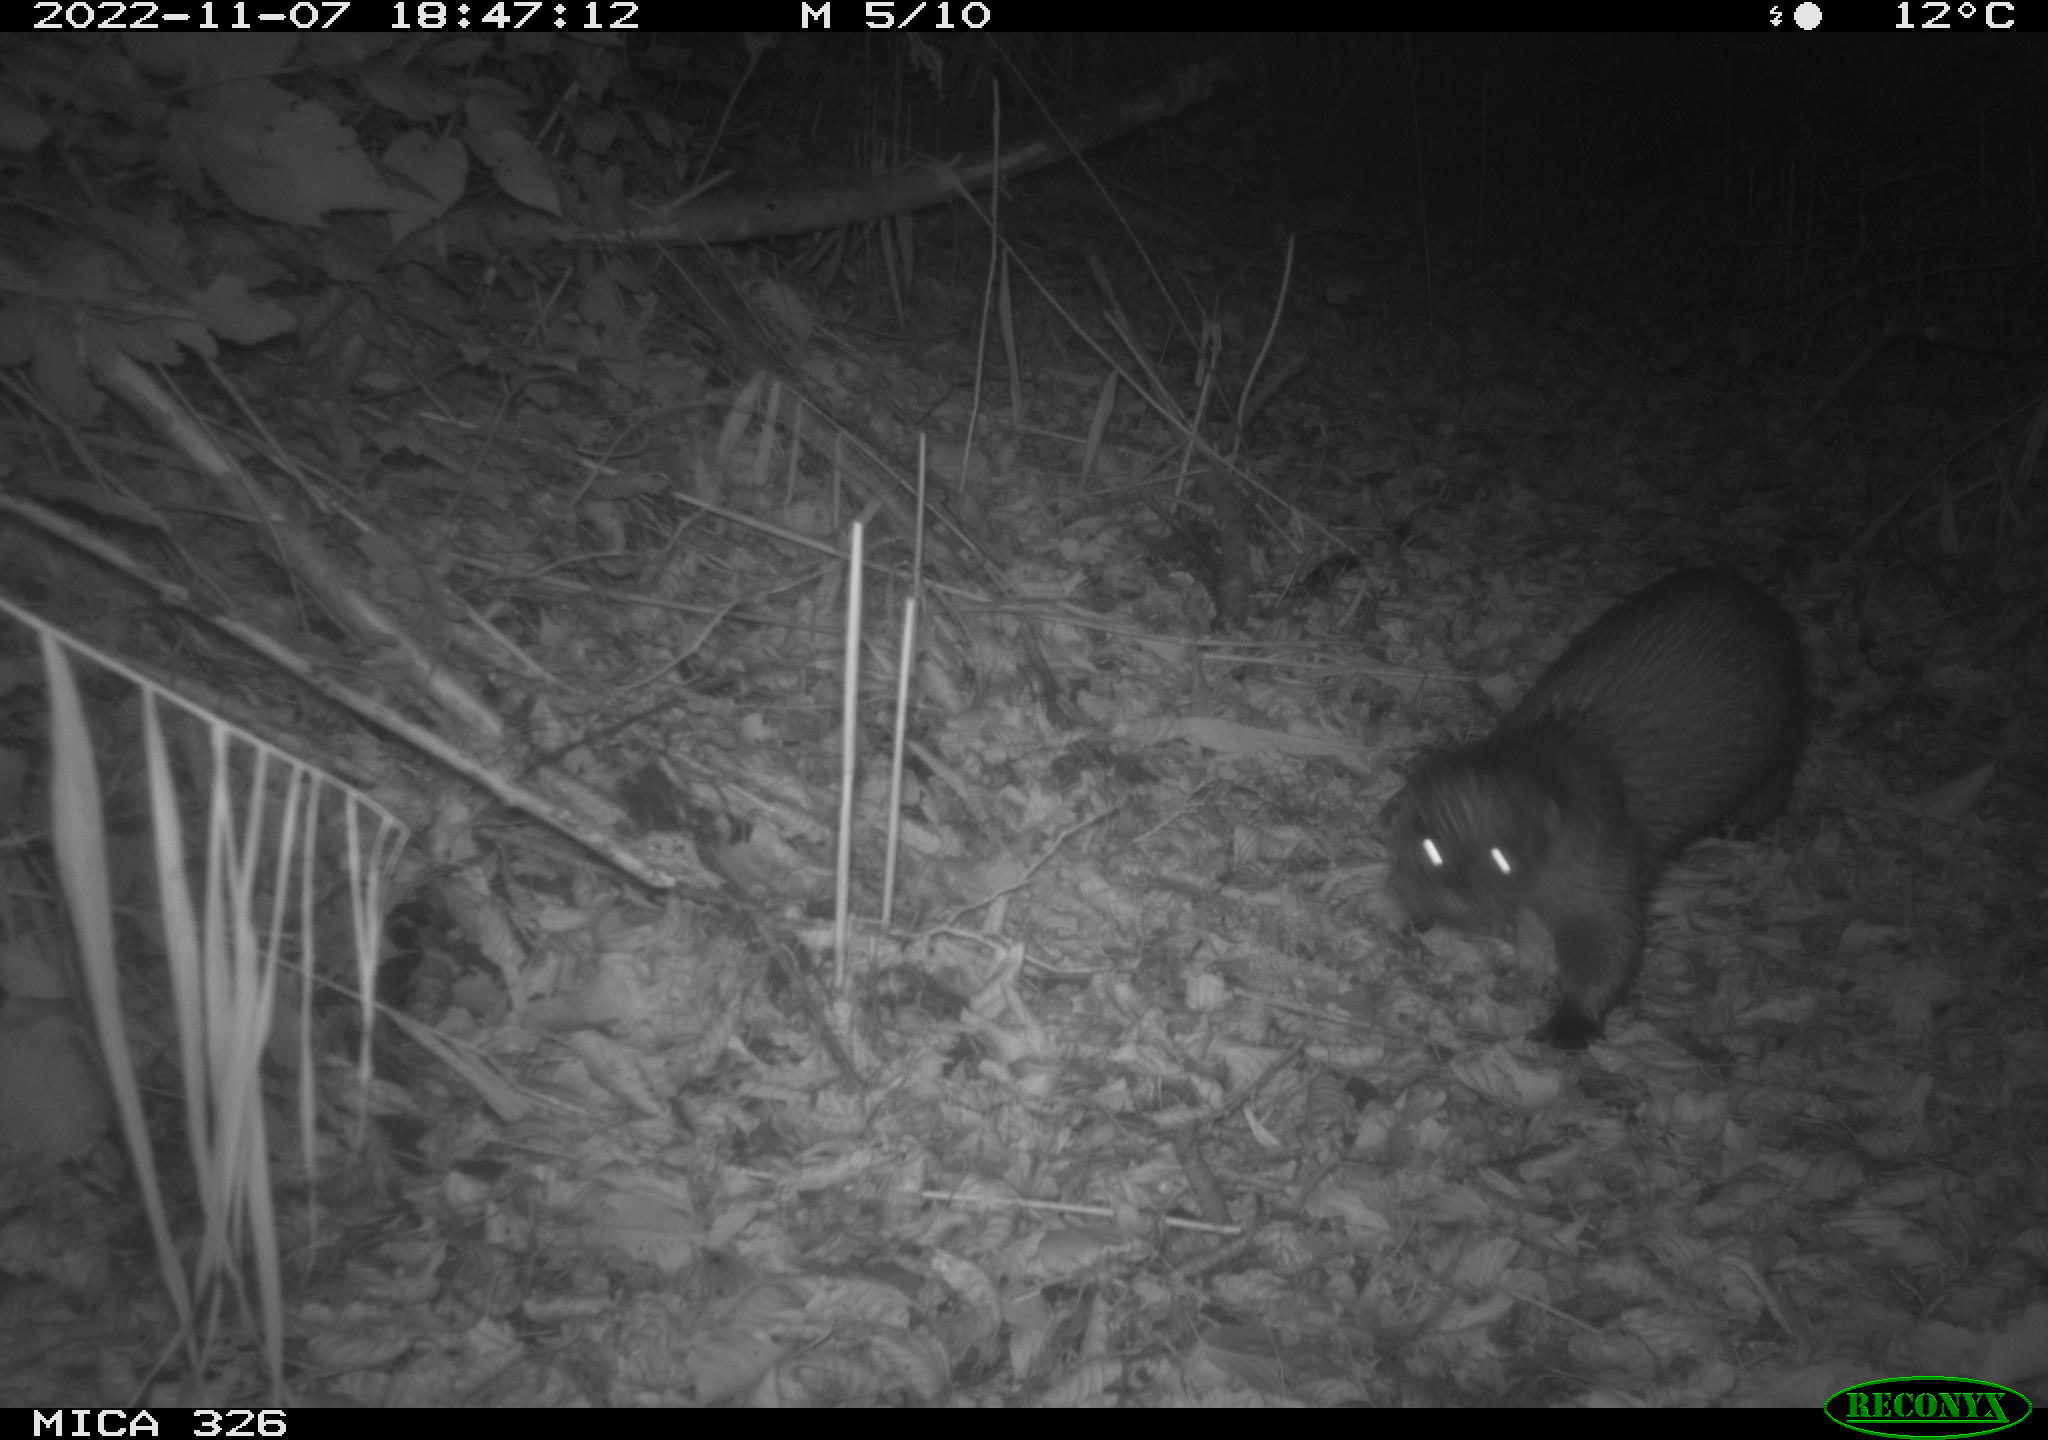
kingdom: Animalia
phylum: Chordata
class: Mammalia
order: Carnivora
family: Mustelidae
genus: Lutra
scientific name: Lutra lutra
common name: European otter
